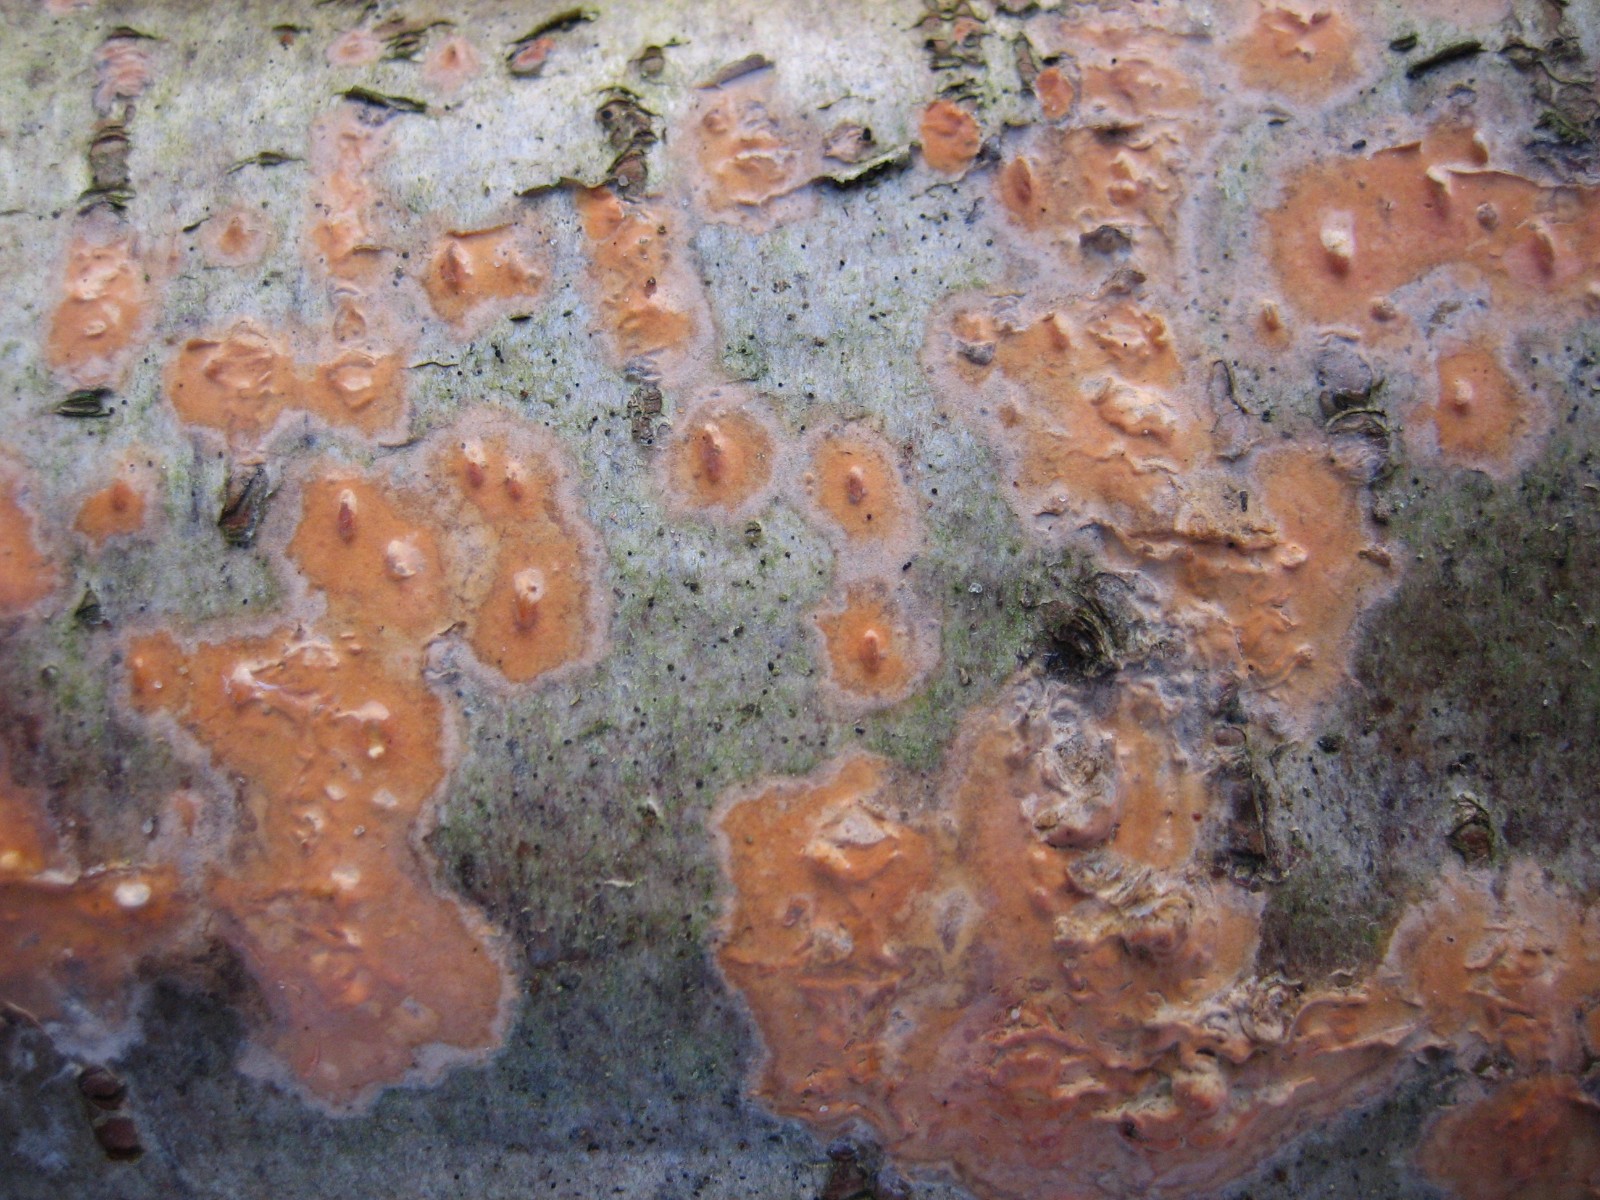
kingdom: Fungi
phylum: Basidiomycota
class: Agaricomycetes
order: Russulales
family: Peniophoraceae
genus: Peniophora
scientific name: Peniophora incarnata
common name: laksefarvet voksskind
